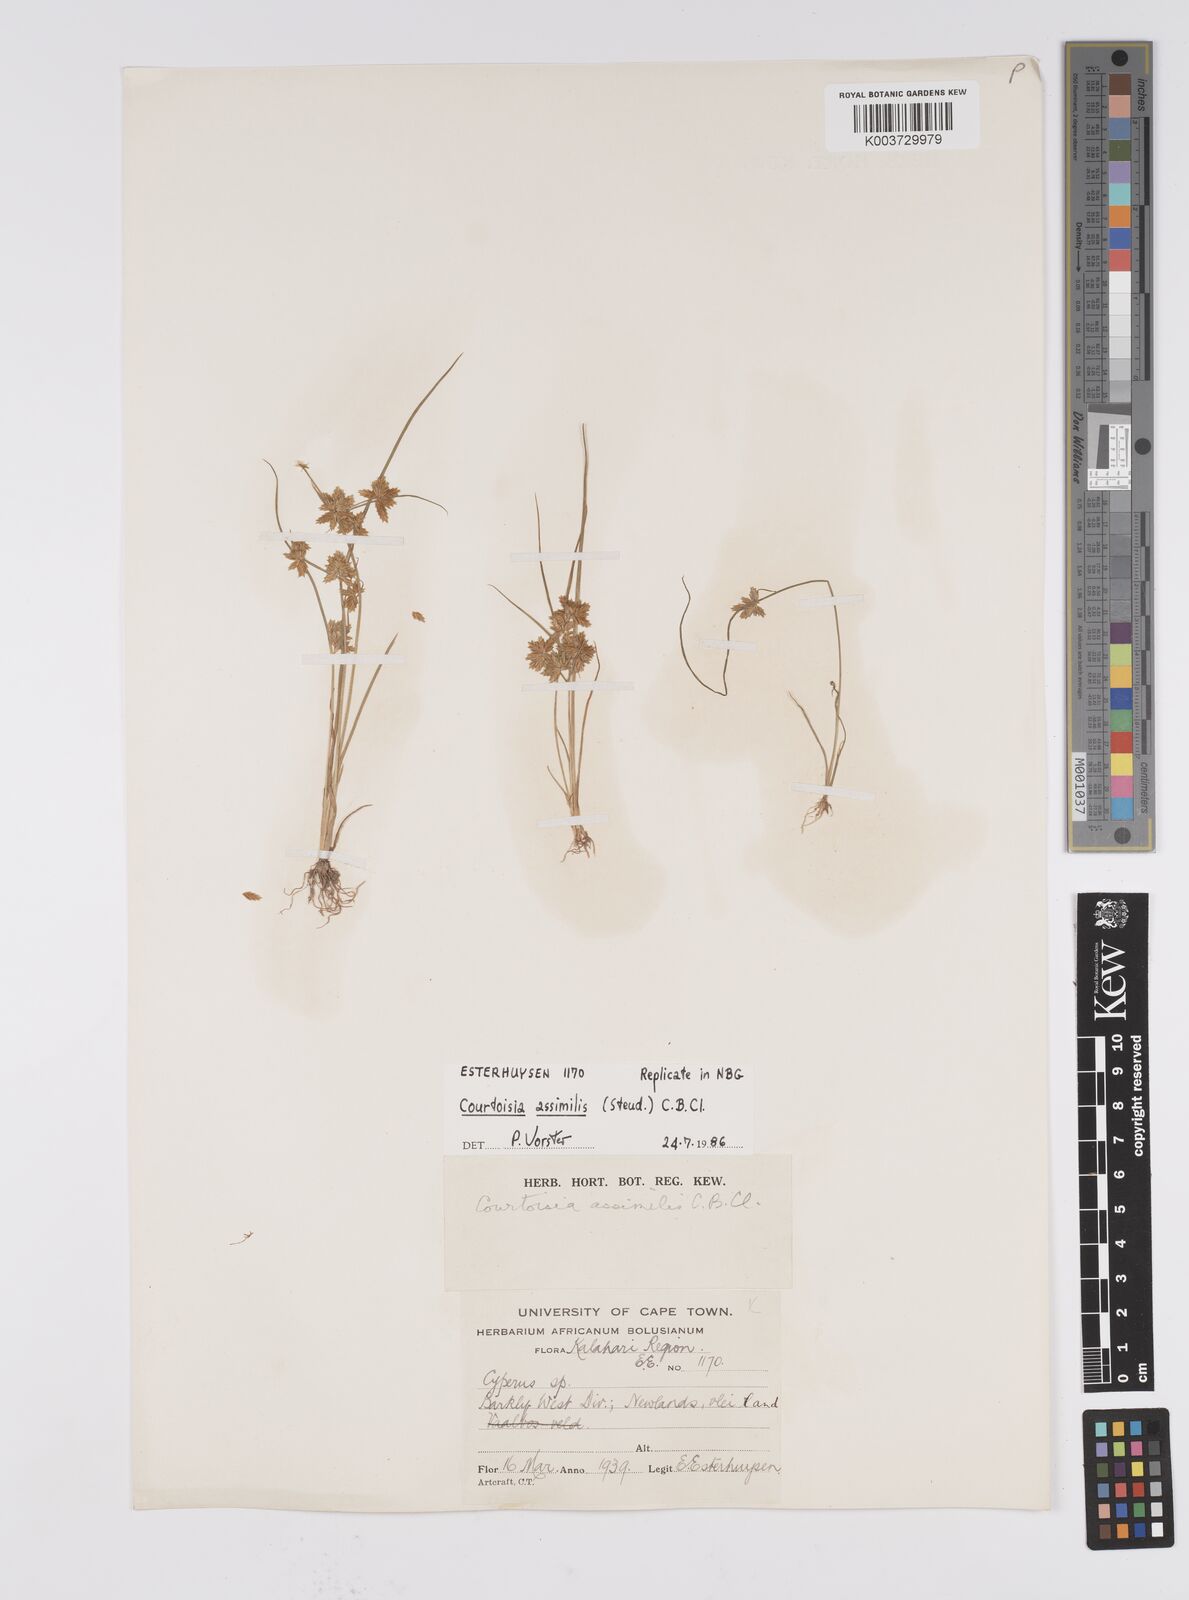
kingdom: Plantae
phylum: Tracheophyta
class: Liliopsida
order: Poales
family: Cyperaceae
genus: Cyperus
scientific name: Cyperus assimilis
